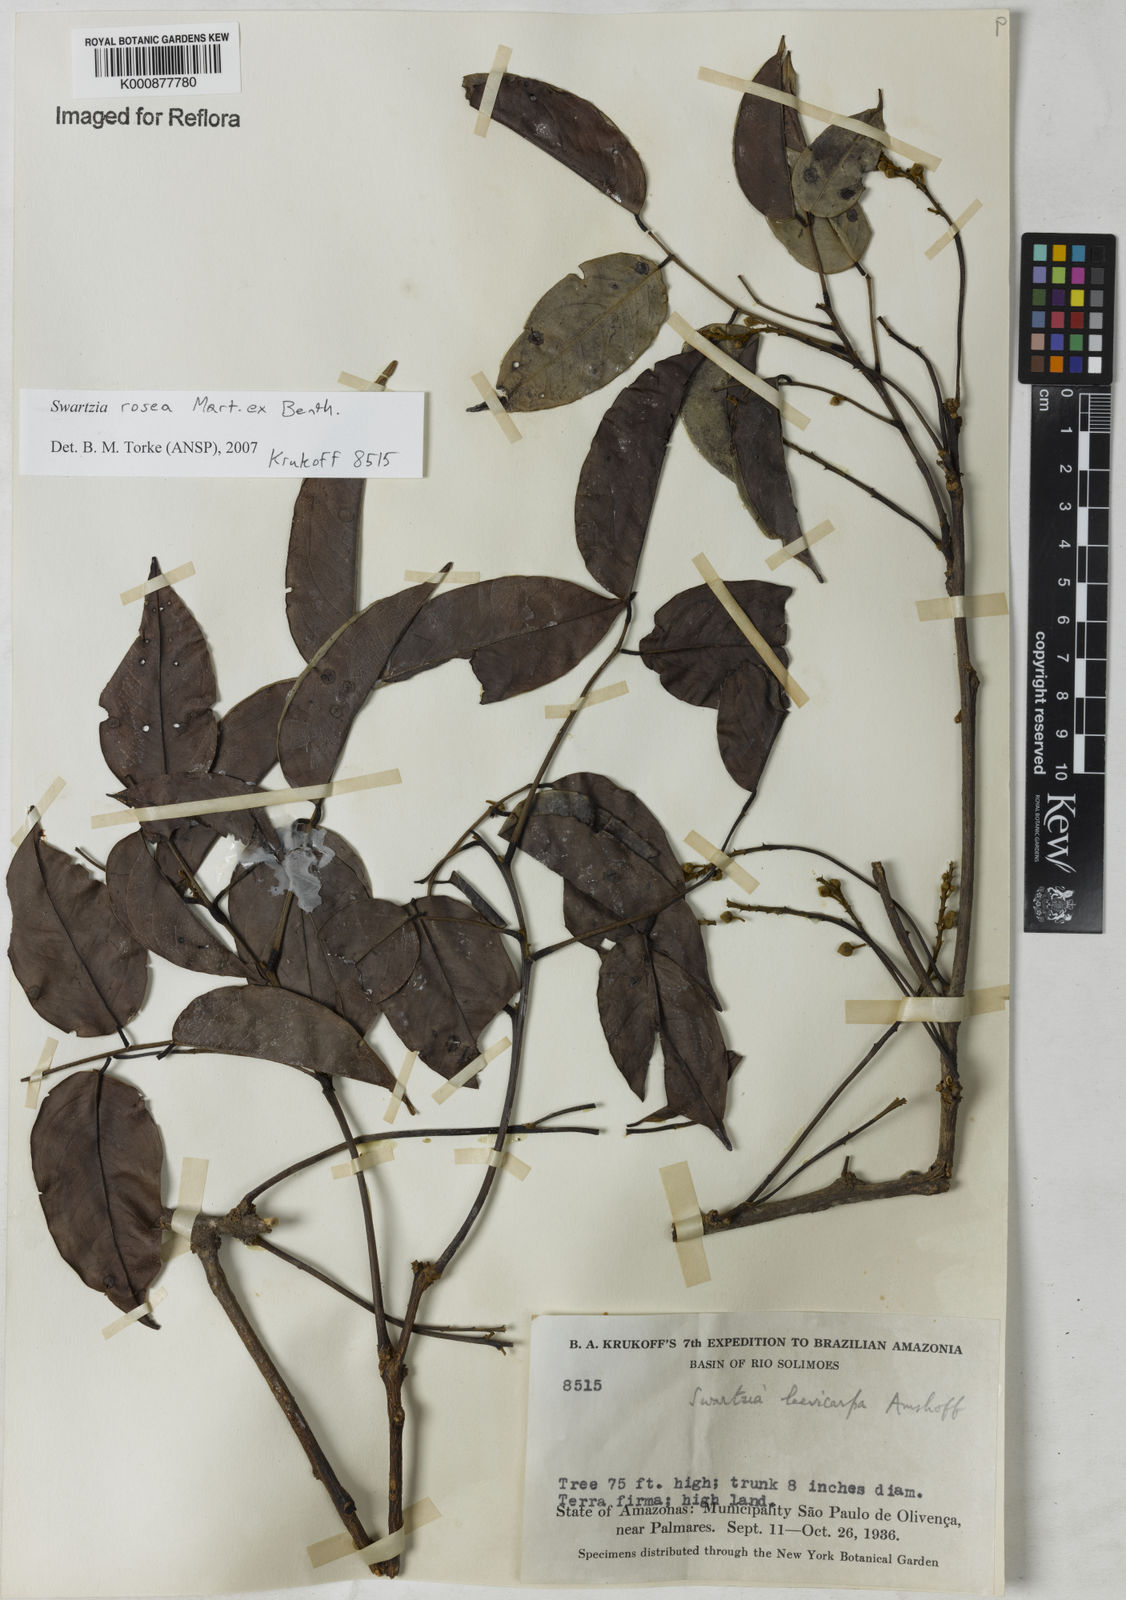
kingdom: Plantae
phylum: Tracheophyta
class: Magnoliopsida
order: Fabales
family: Fabaceae
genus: Swartzia
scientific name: Swartzia rosea
